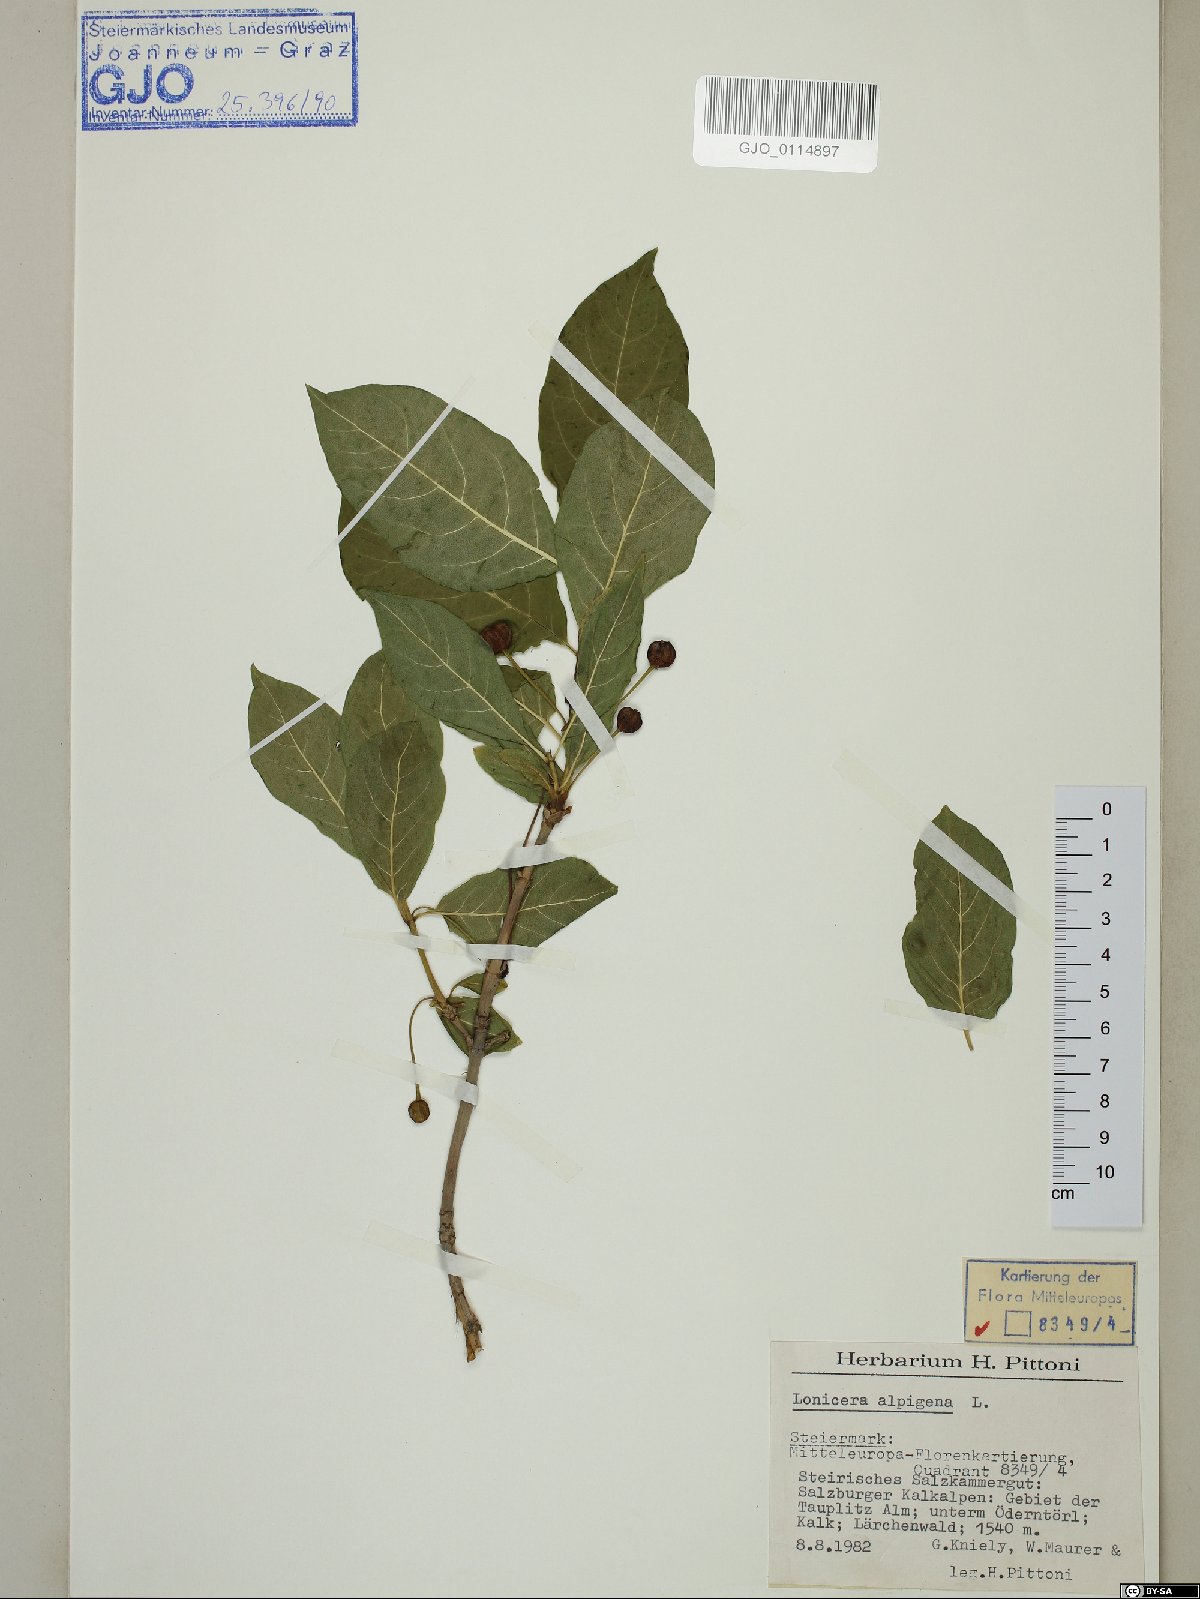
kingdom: Plantae
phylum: Tracheophyta
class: Magnoliopsida
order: Dipsacales
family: Caprifoliaceae
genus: Lonicera
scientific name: Lonicera alpigena
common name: Alpine honeysuckle
